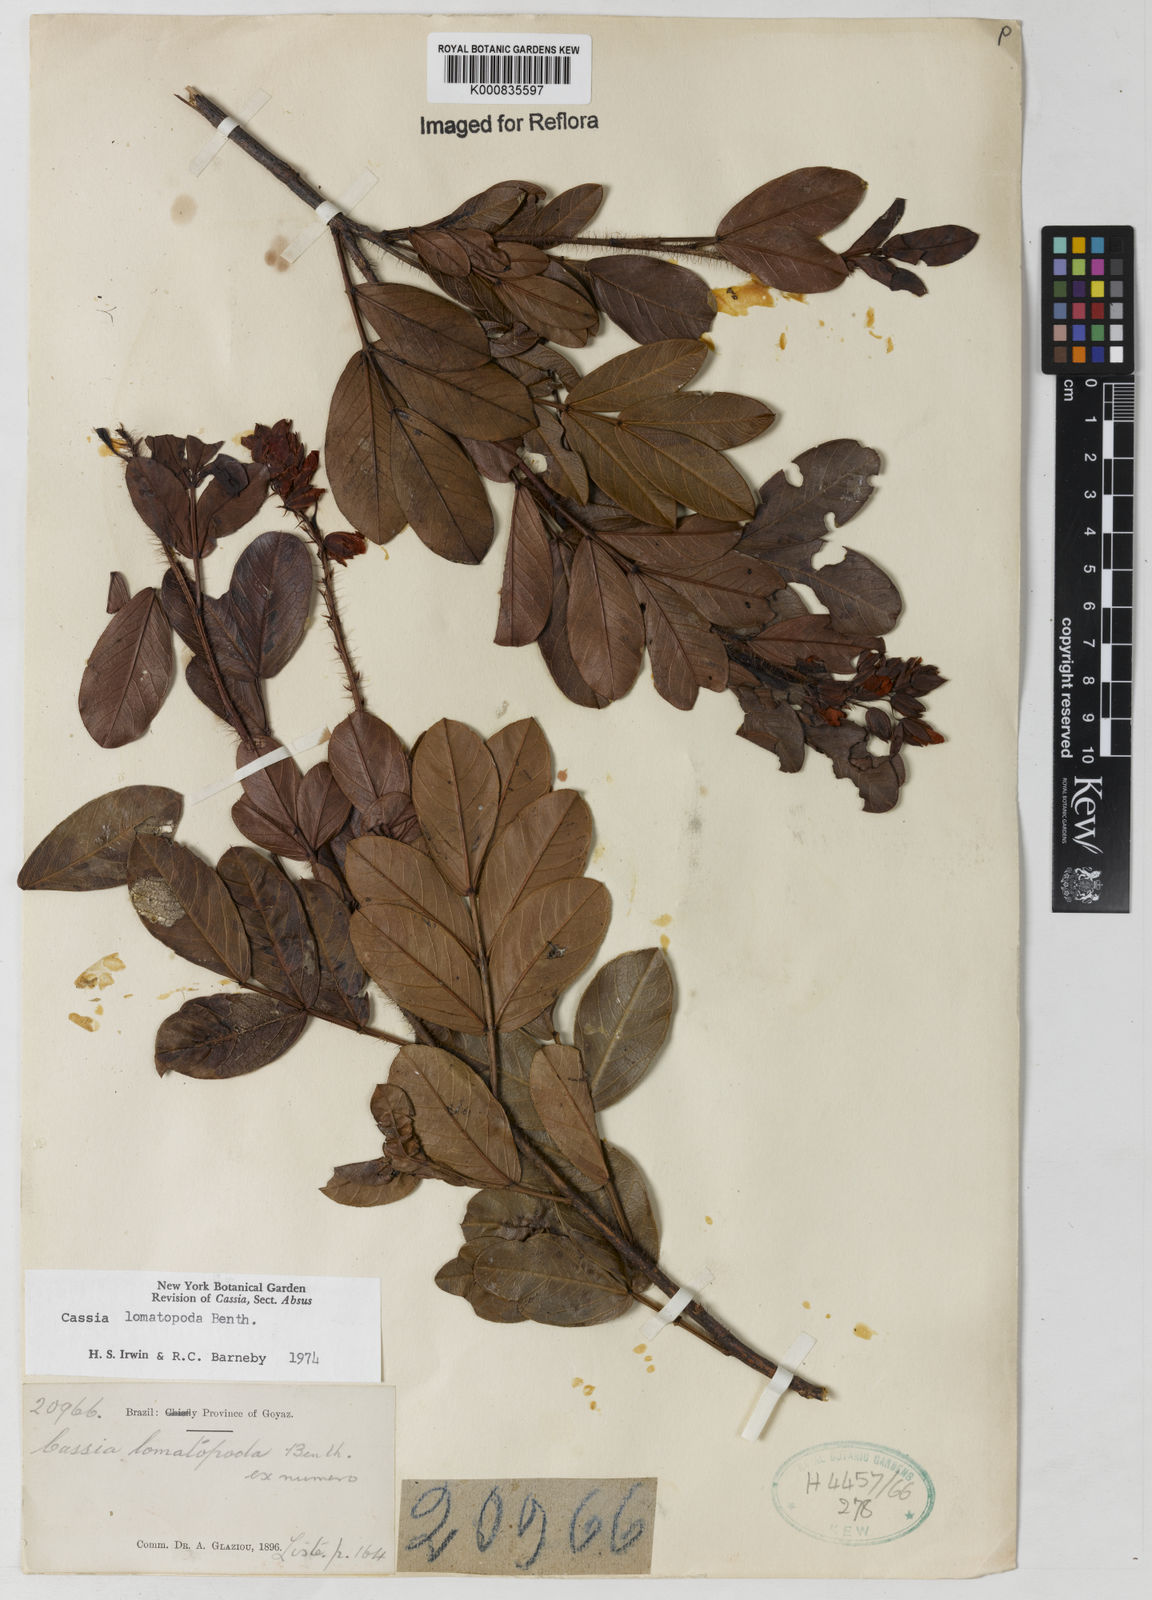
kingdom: Plantae
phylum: Tracheophyta
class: Magnoliopsida
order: Fabales
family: Fabaceae
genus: Chamaecrista
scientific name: Chamaecrista lomatopoda
